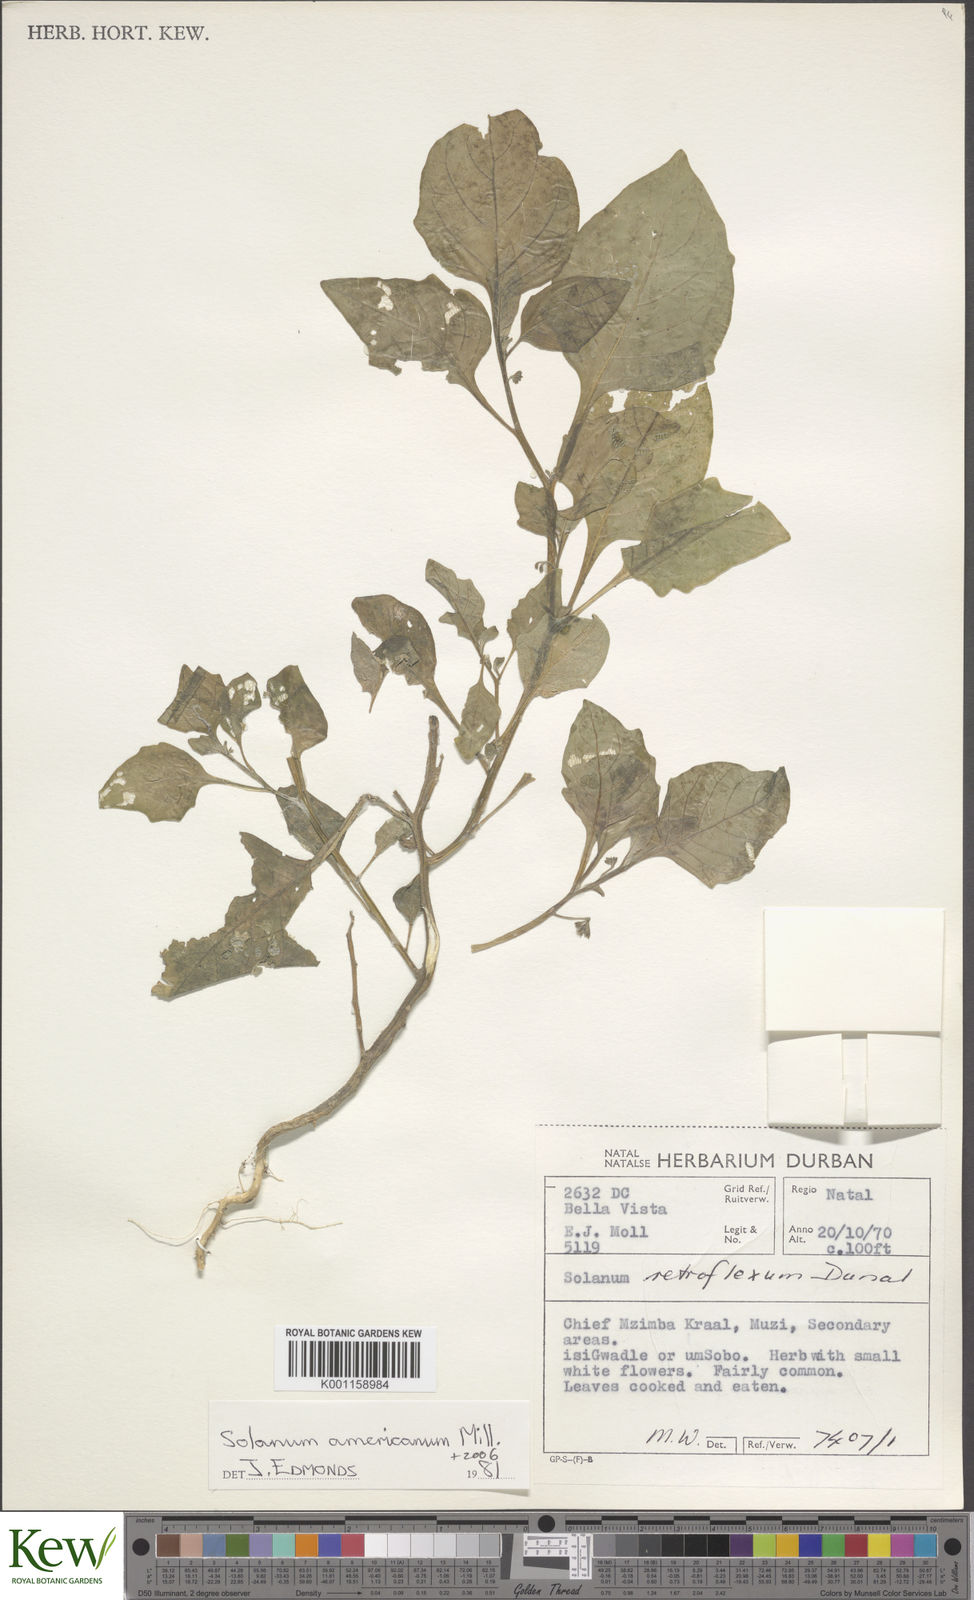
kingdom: Plantae
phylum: Tracheophyta
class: Magnoliopsida
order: Solanales
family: Solanaceae
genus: Solanum
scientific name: Solanum americanum
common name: American black nightshade
